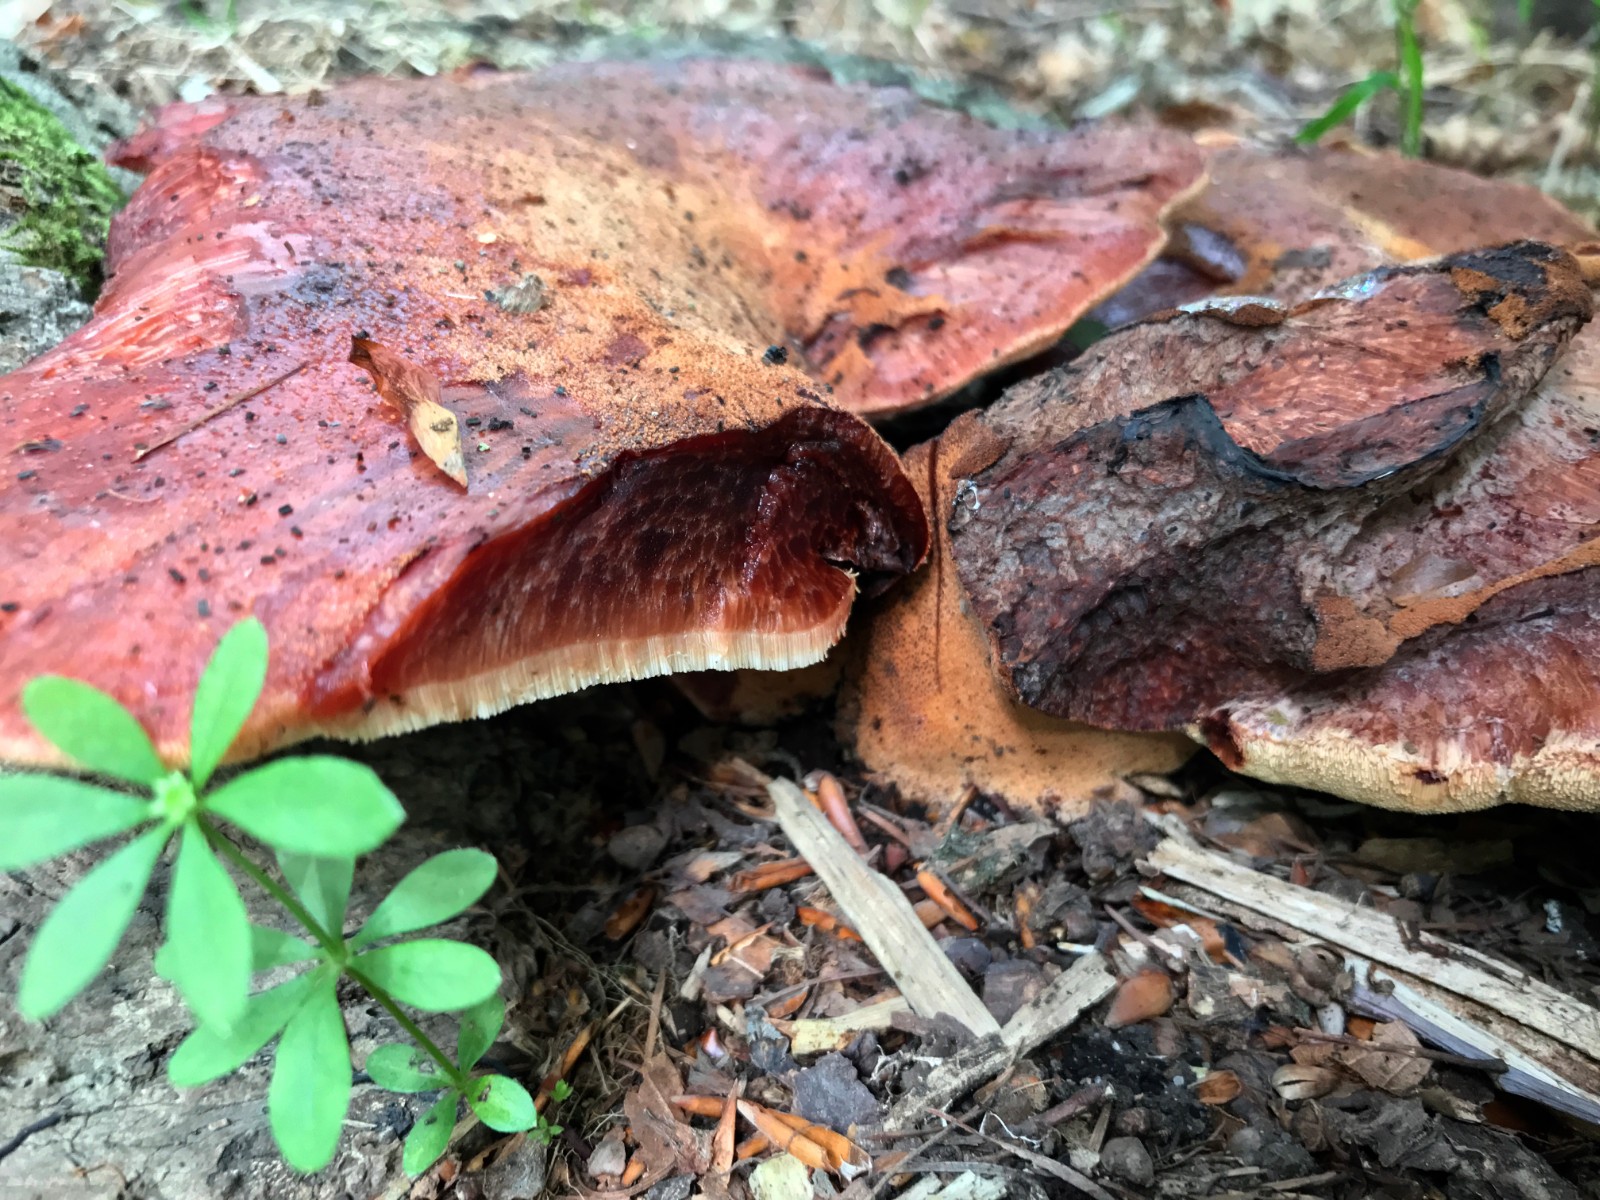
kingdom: Fungi
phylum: Basidiomycota
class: Agaricomycetes
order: Agaricales
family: Fistulinaceae
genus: Fistulina
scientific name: Fistulina hepatica
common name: oksetunge
